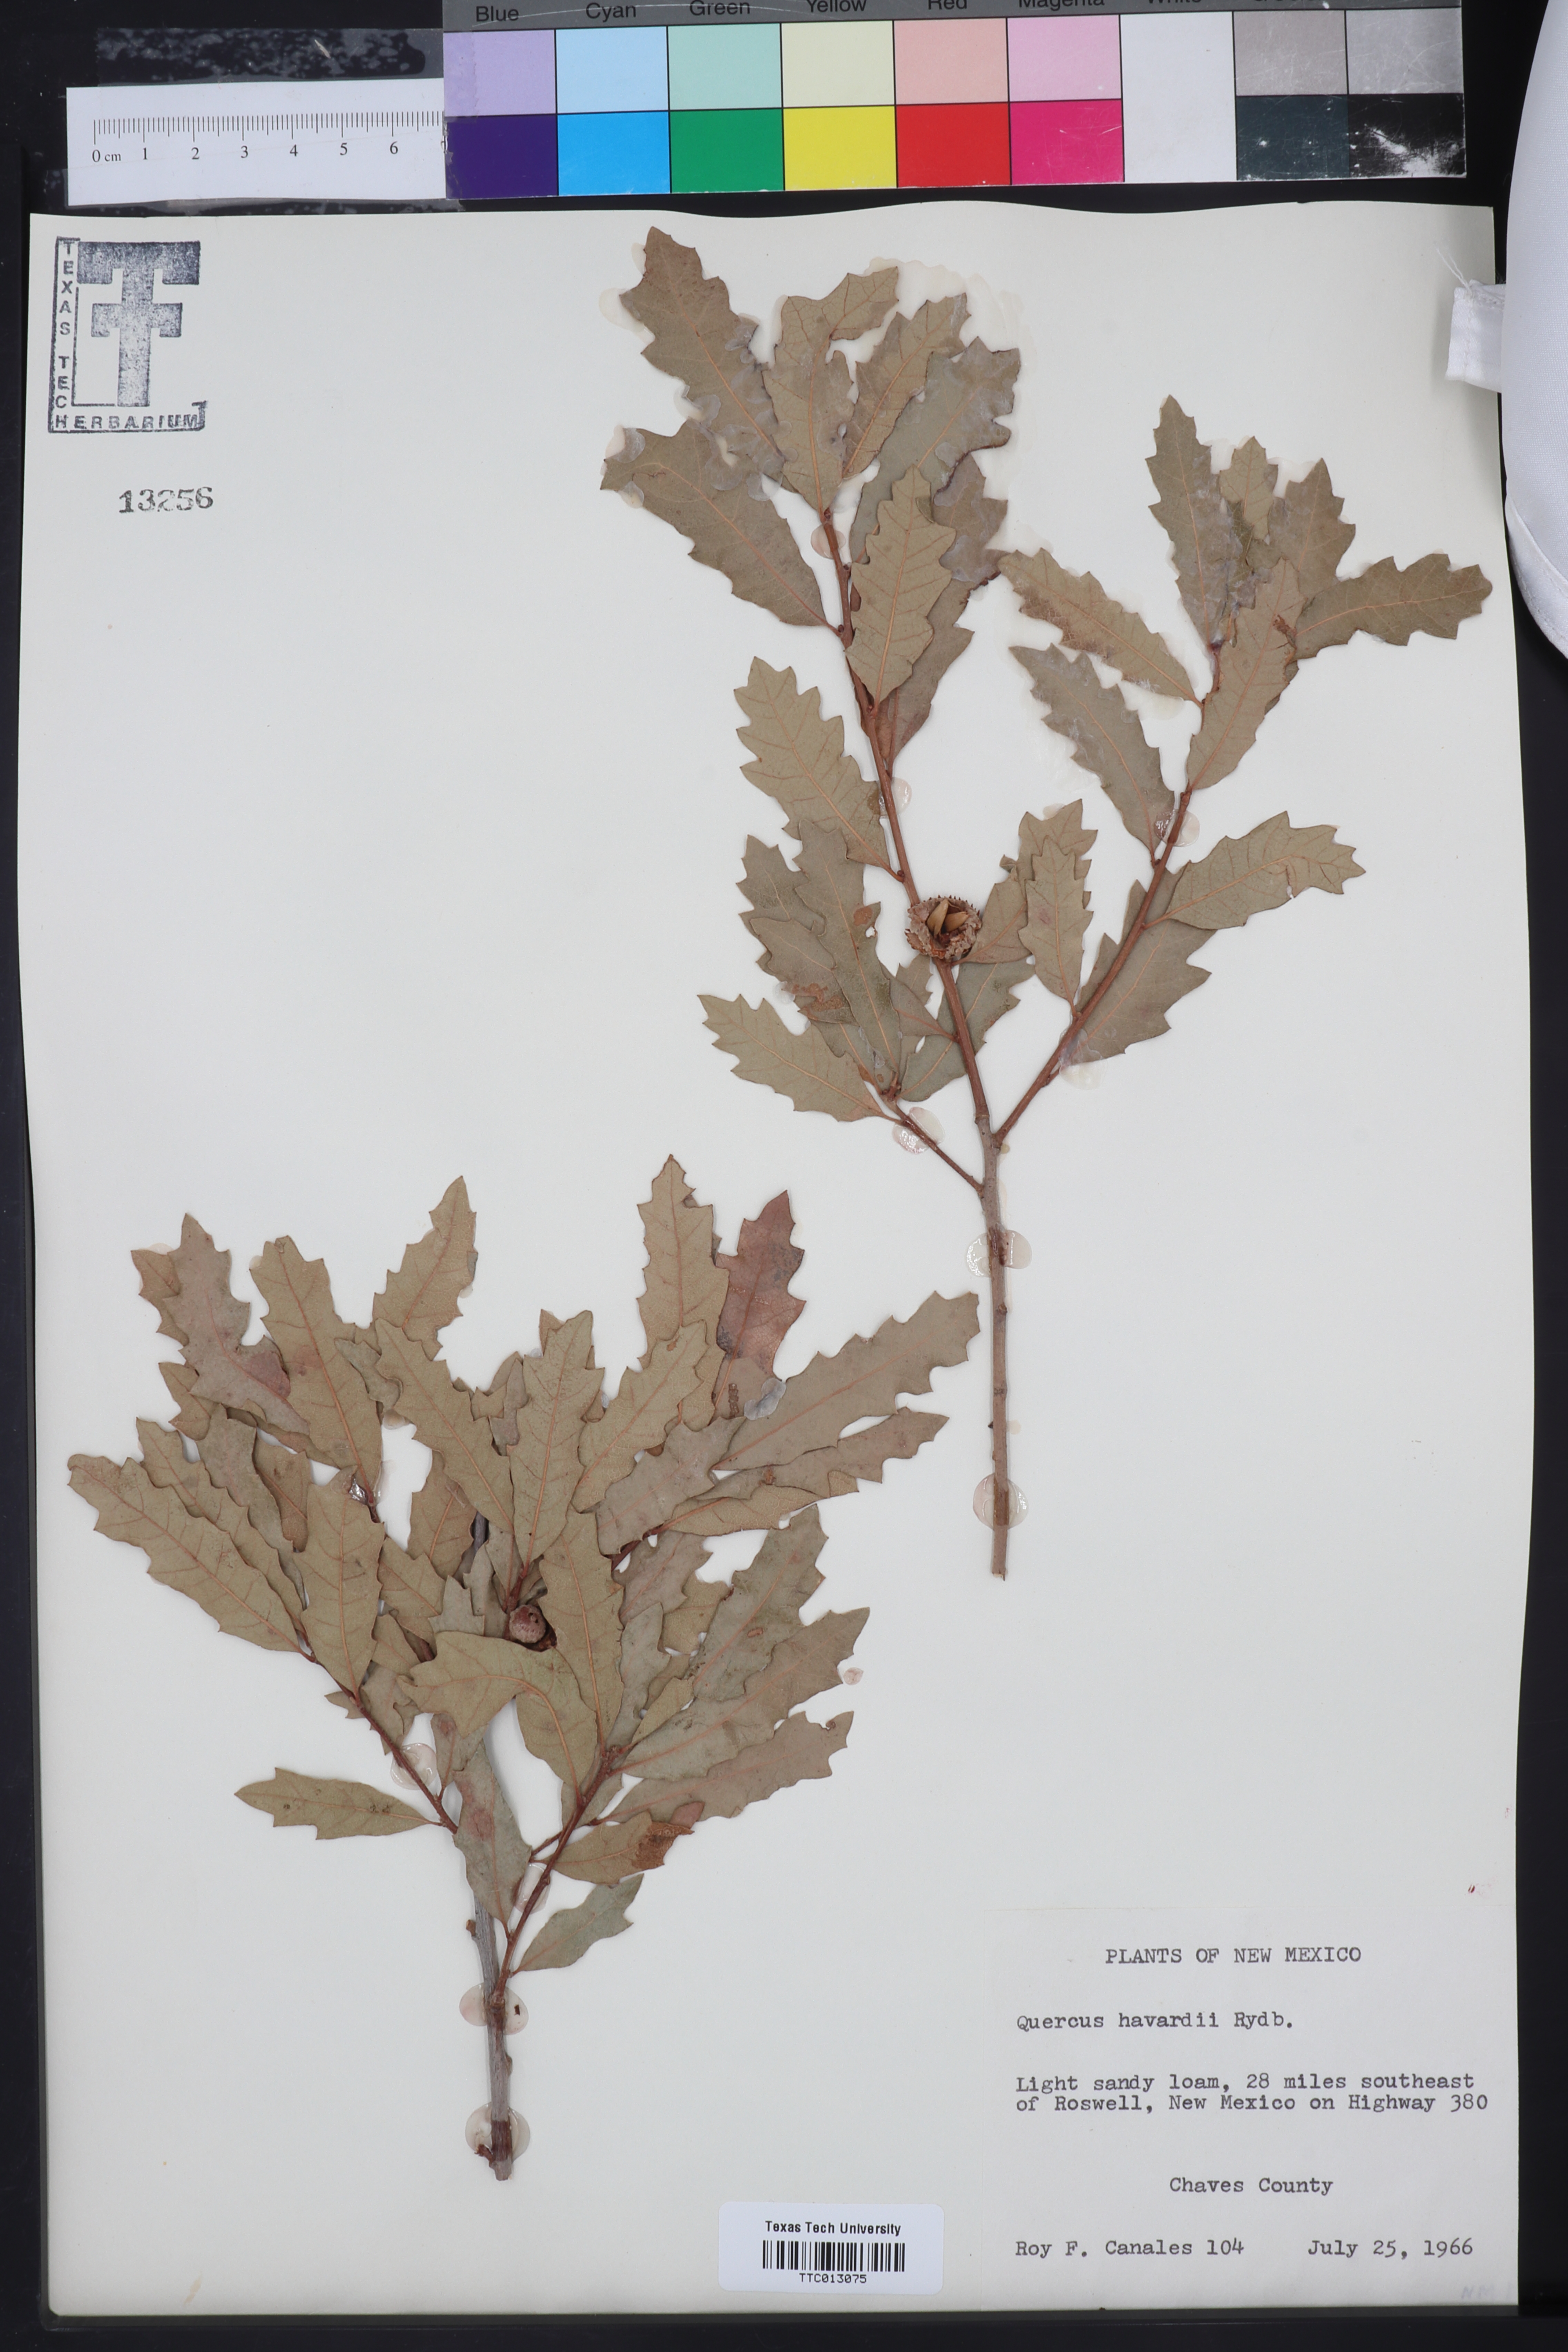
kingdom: Plantae
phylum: Tracheophyta
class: Magnoliopsida
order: Fagales
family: Fagaceae
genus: Quercus
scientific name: Quercus havardii
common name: Shinnery oak
